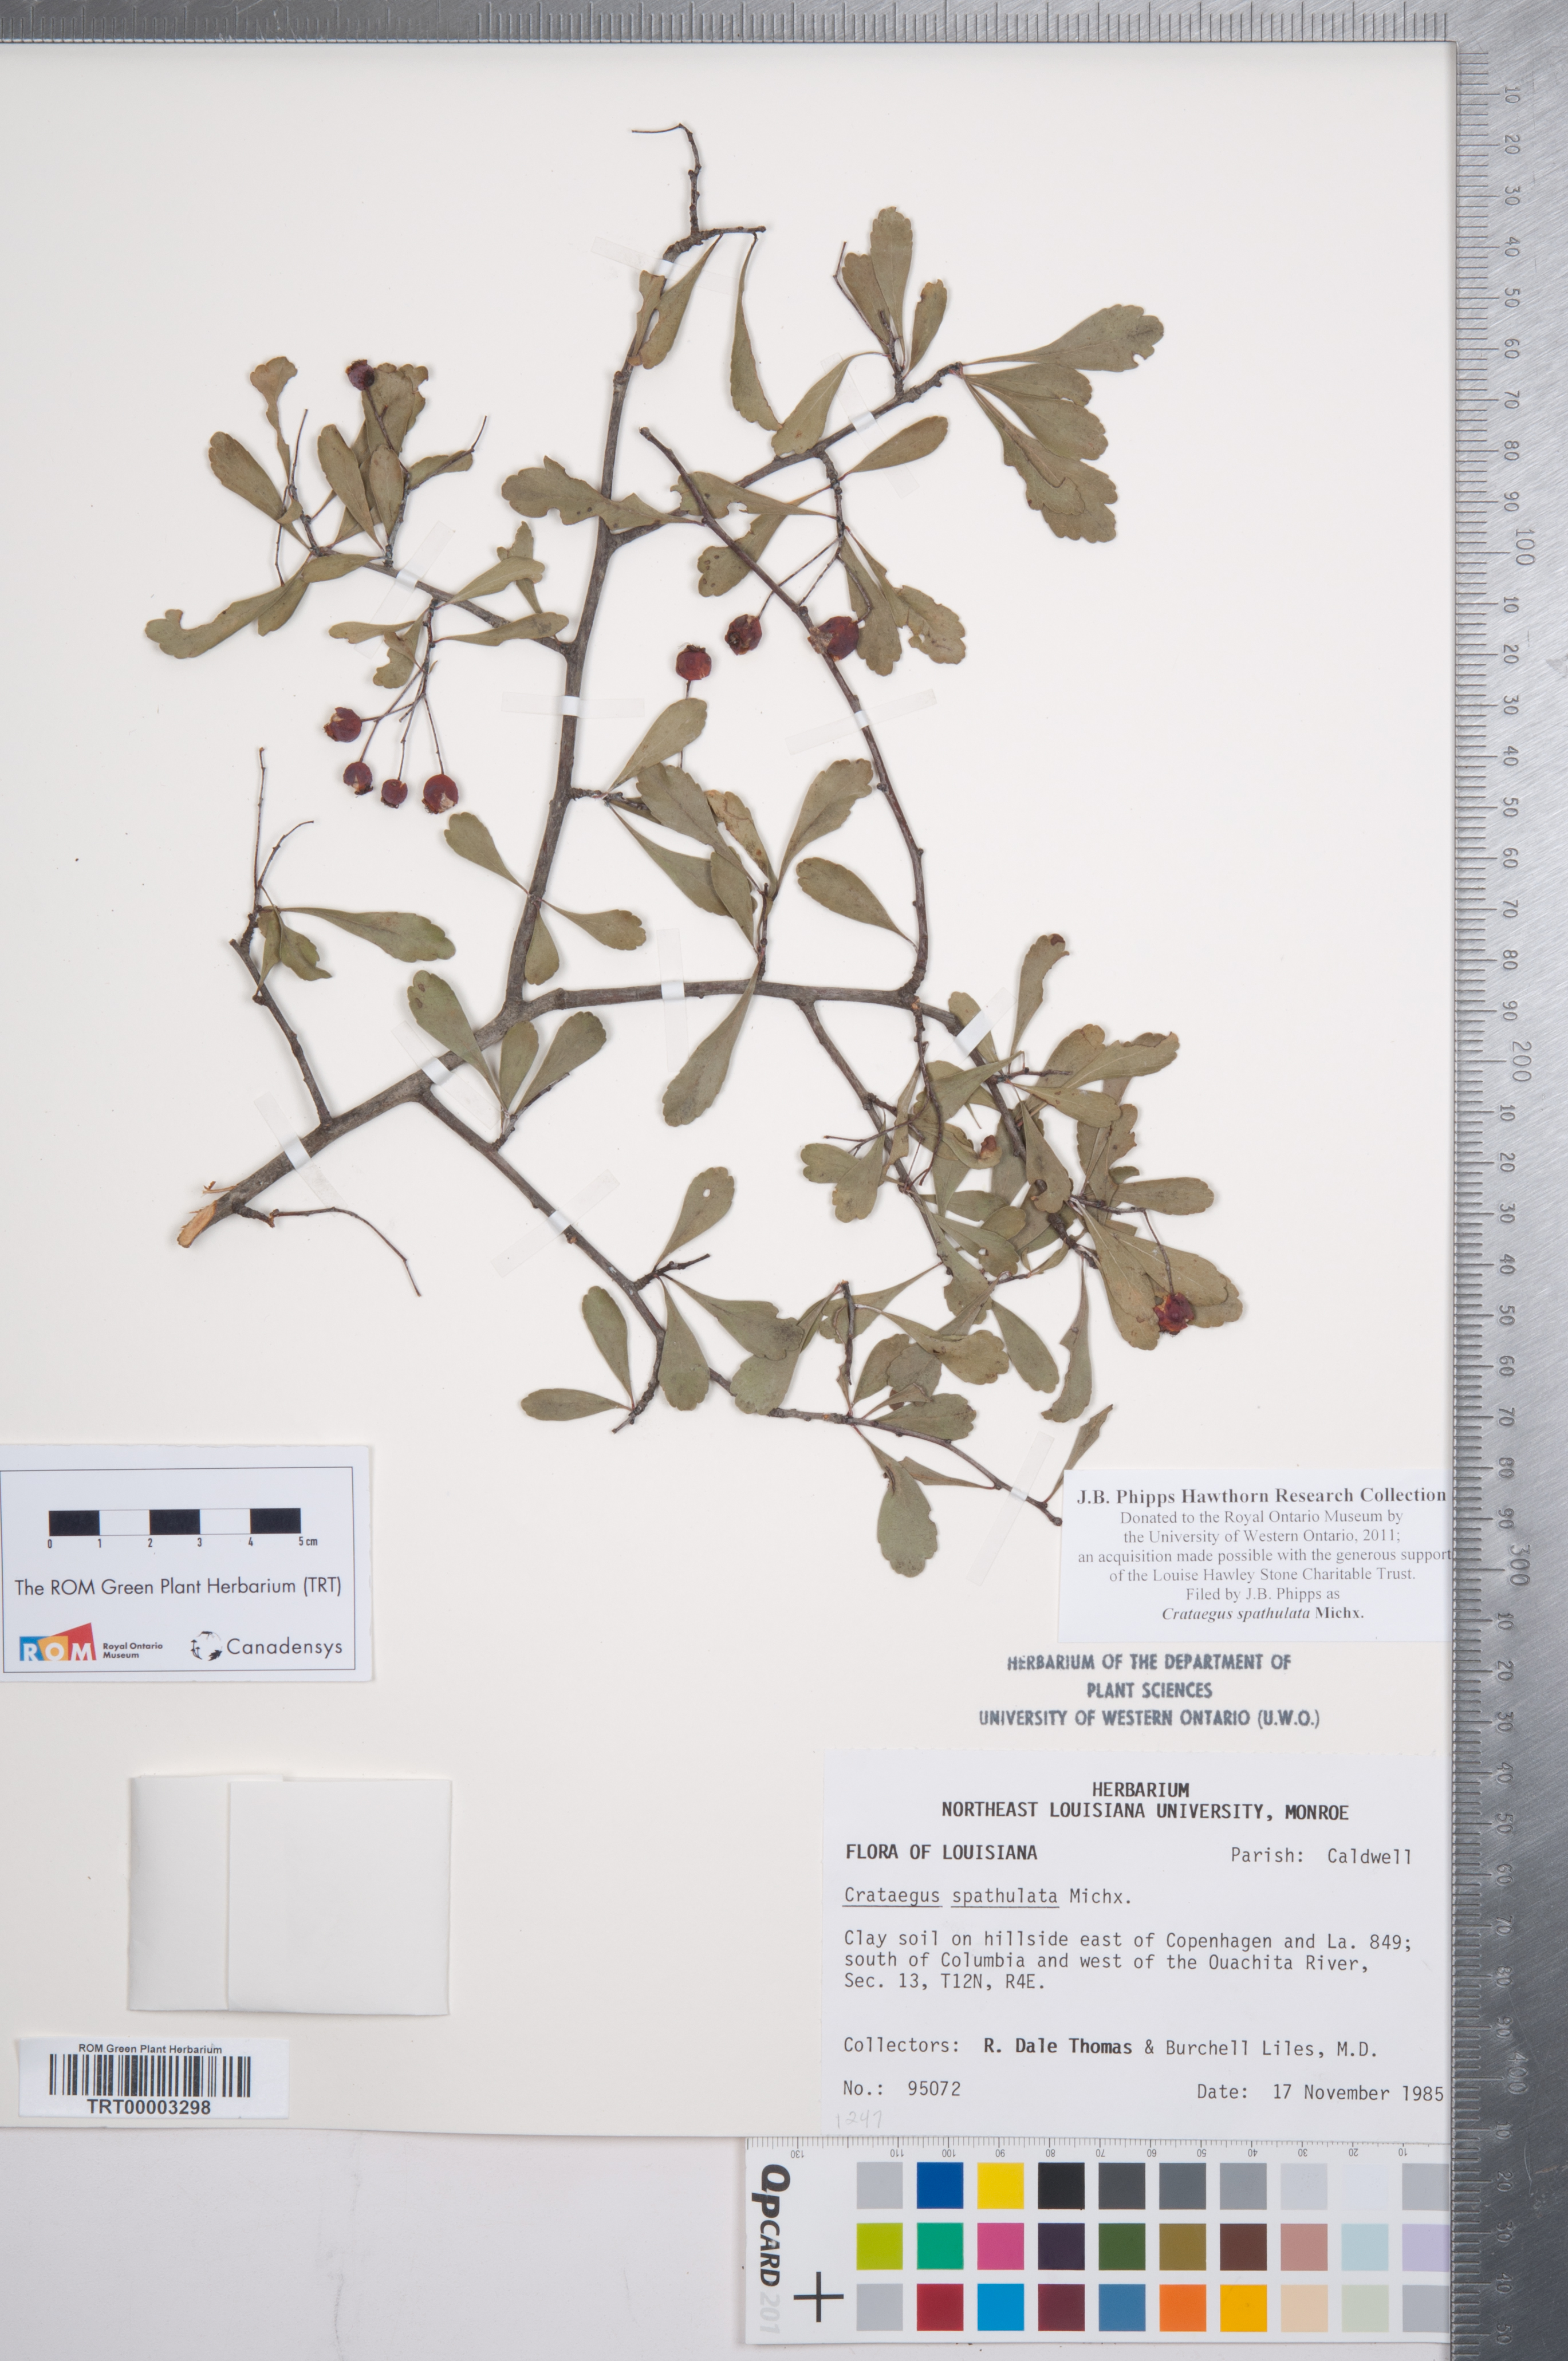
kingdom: Plantae
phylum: Tracheophyta
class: Magnoliopsida
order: Rosales
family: Rosaceae
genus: Crataegus
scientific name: Crataegus spathulata
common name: Littlehip hawthorn
